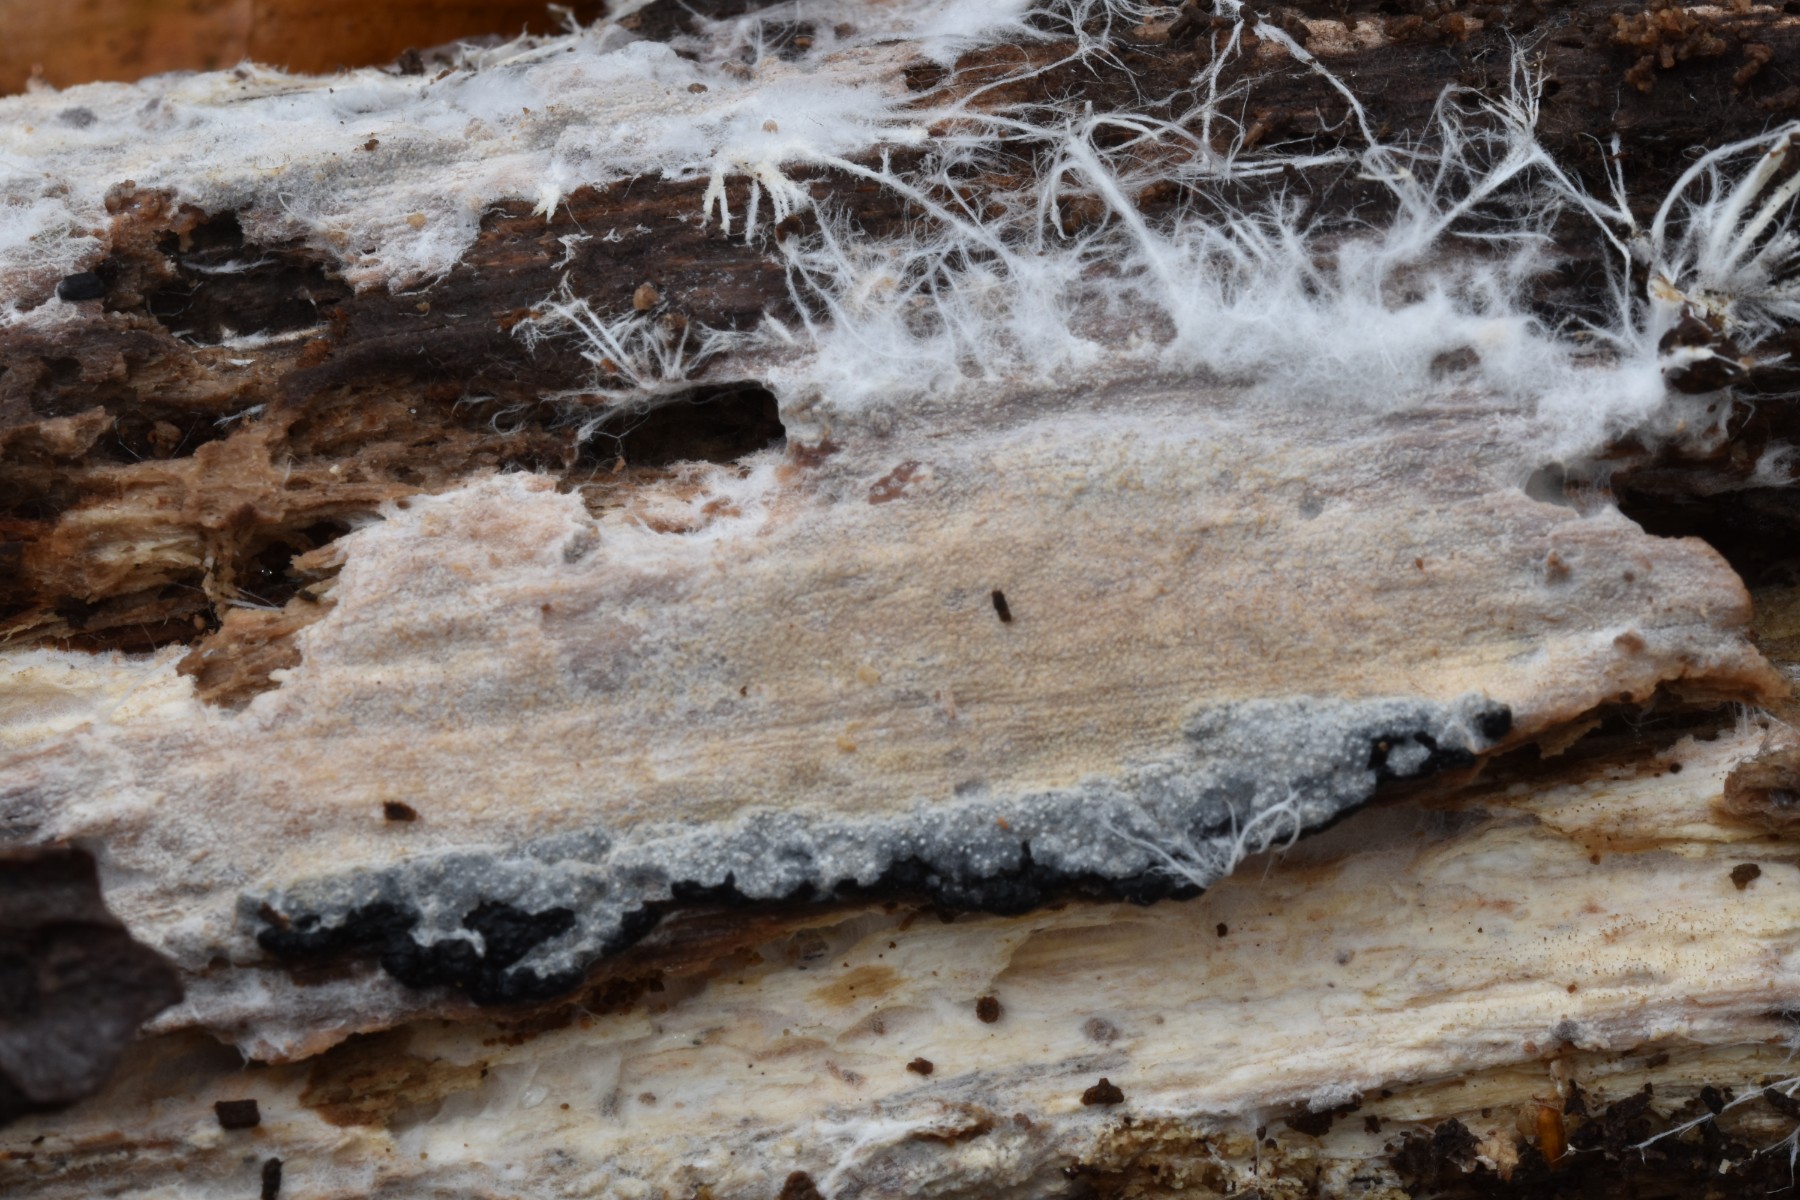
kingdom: Fungi
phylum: Basidiomycota
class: Agaricomycetes
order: Hymenochaetales
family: Rickenellaceae
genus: Resinicium
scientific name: Resinicium bicolor
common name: almindelig vokstand
